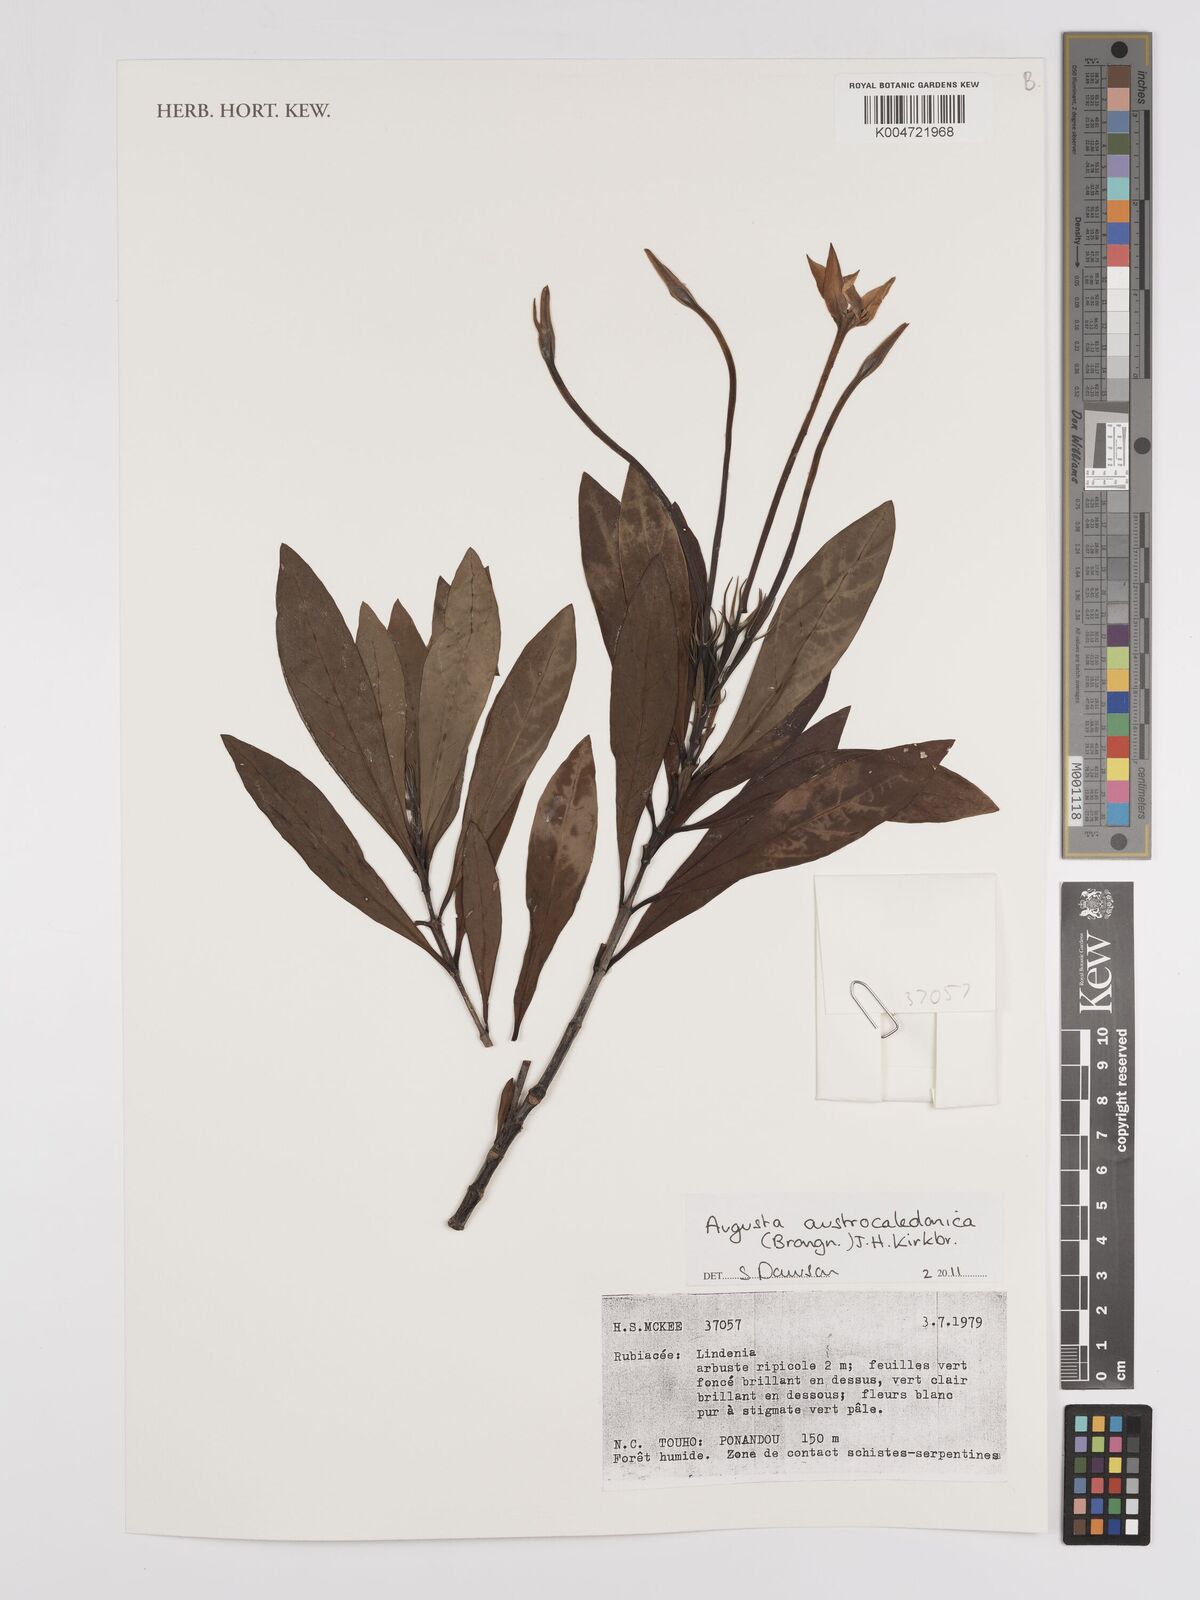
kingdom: Plantae
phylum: Tracheophyta
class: Magnoliopsida
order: Gentianales
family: Rubiaceae
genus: Augusta
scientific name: Augusta austrocaledonica
